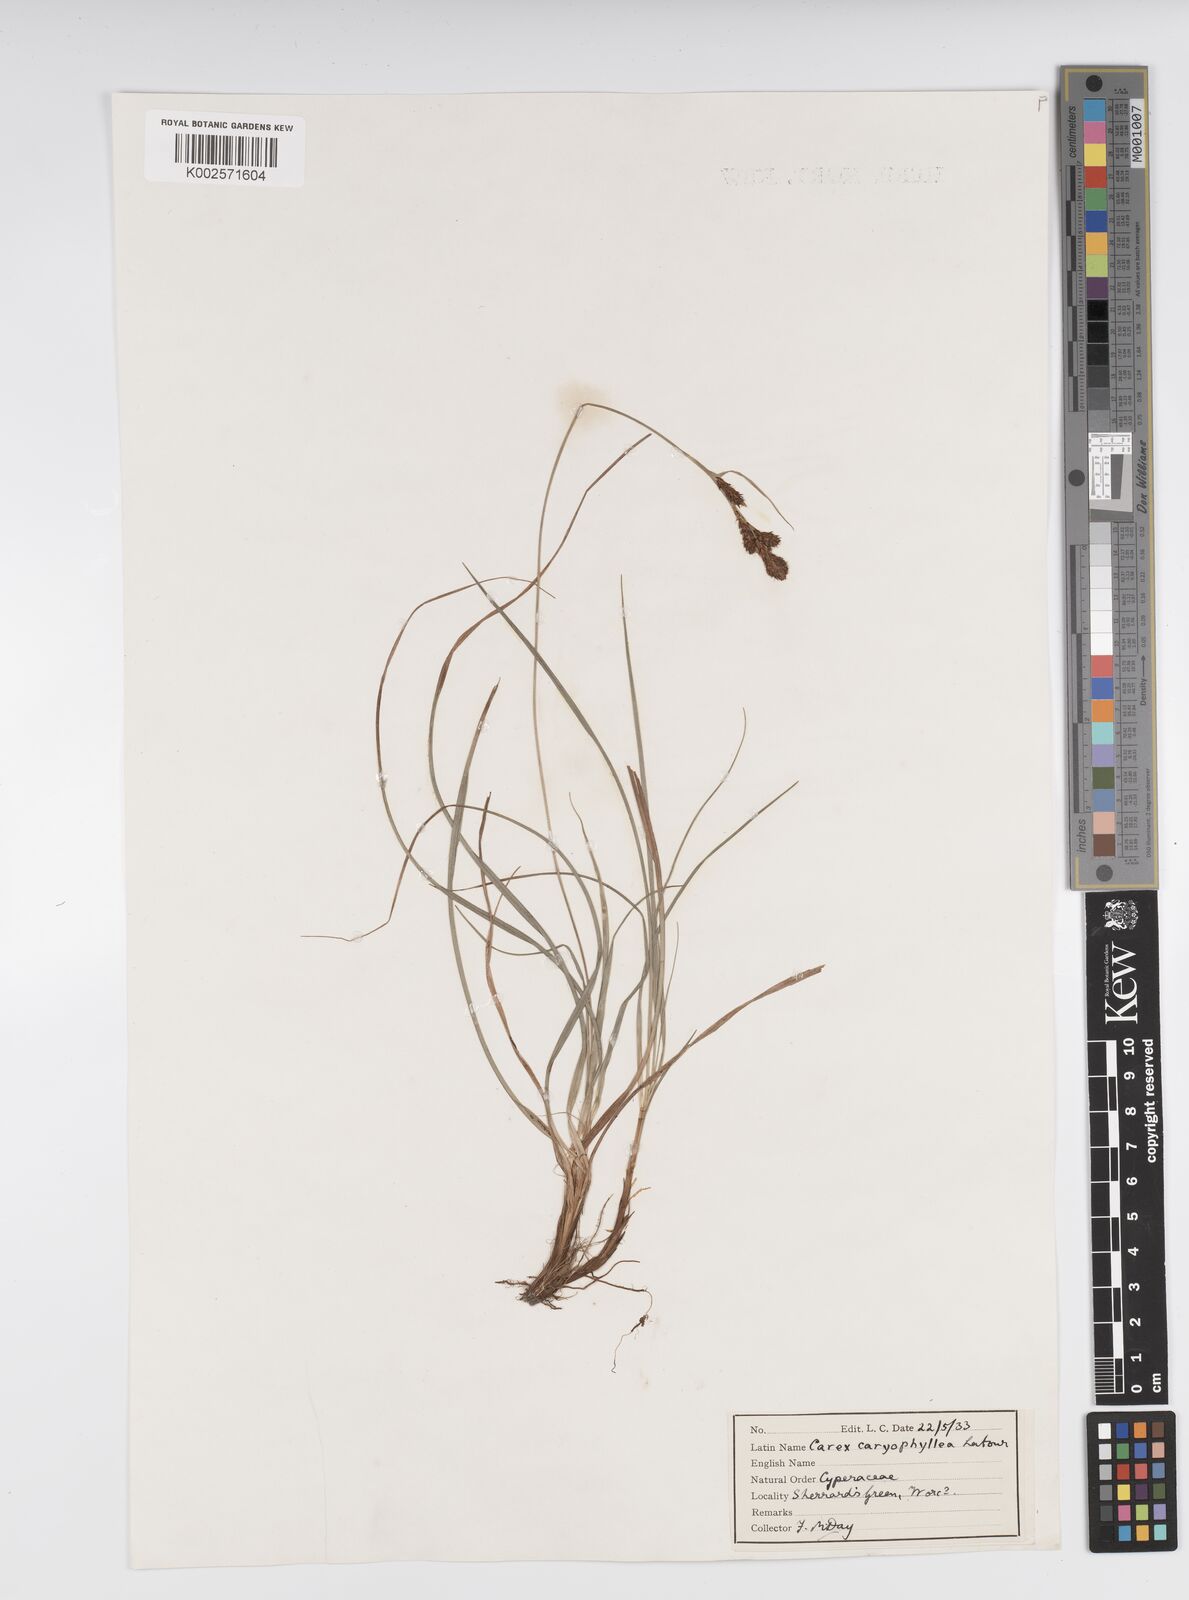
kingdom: Plantae
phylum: Tracheophyta
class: Liliopsida
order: Poales
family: Cyperaceae
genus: Carex
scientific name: Carex caryophyllea
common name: Spring sedge
